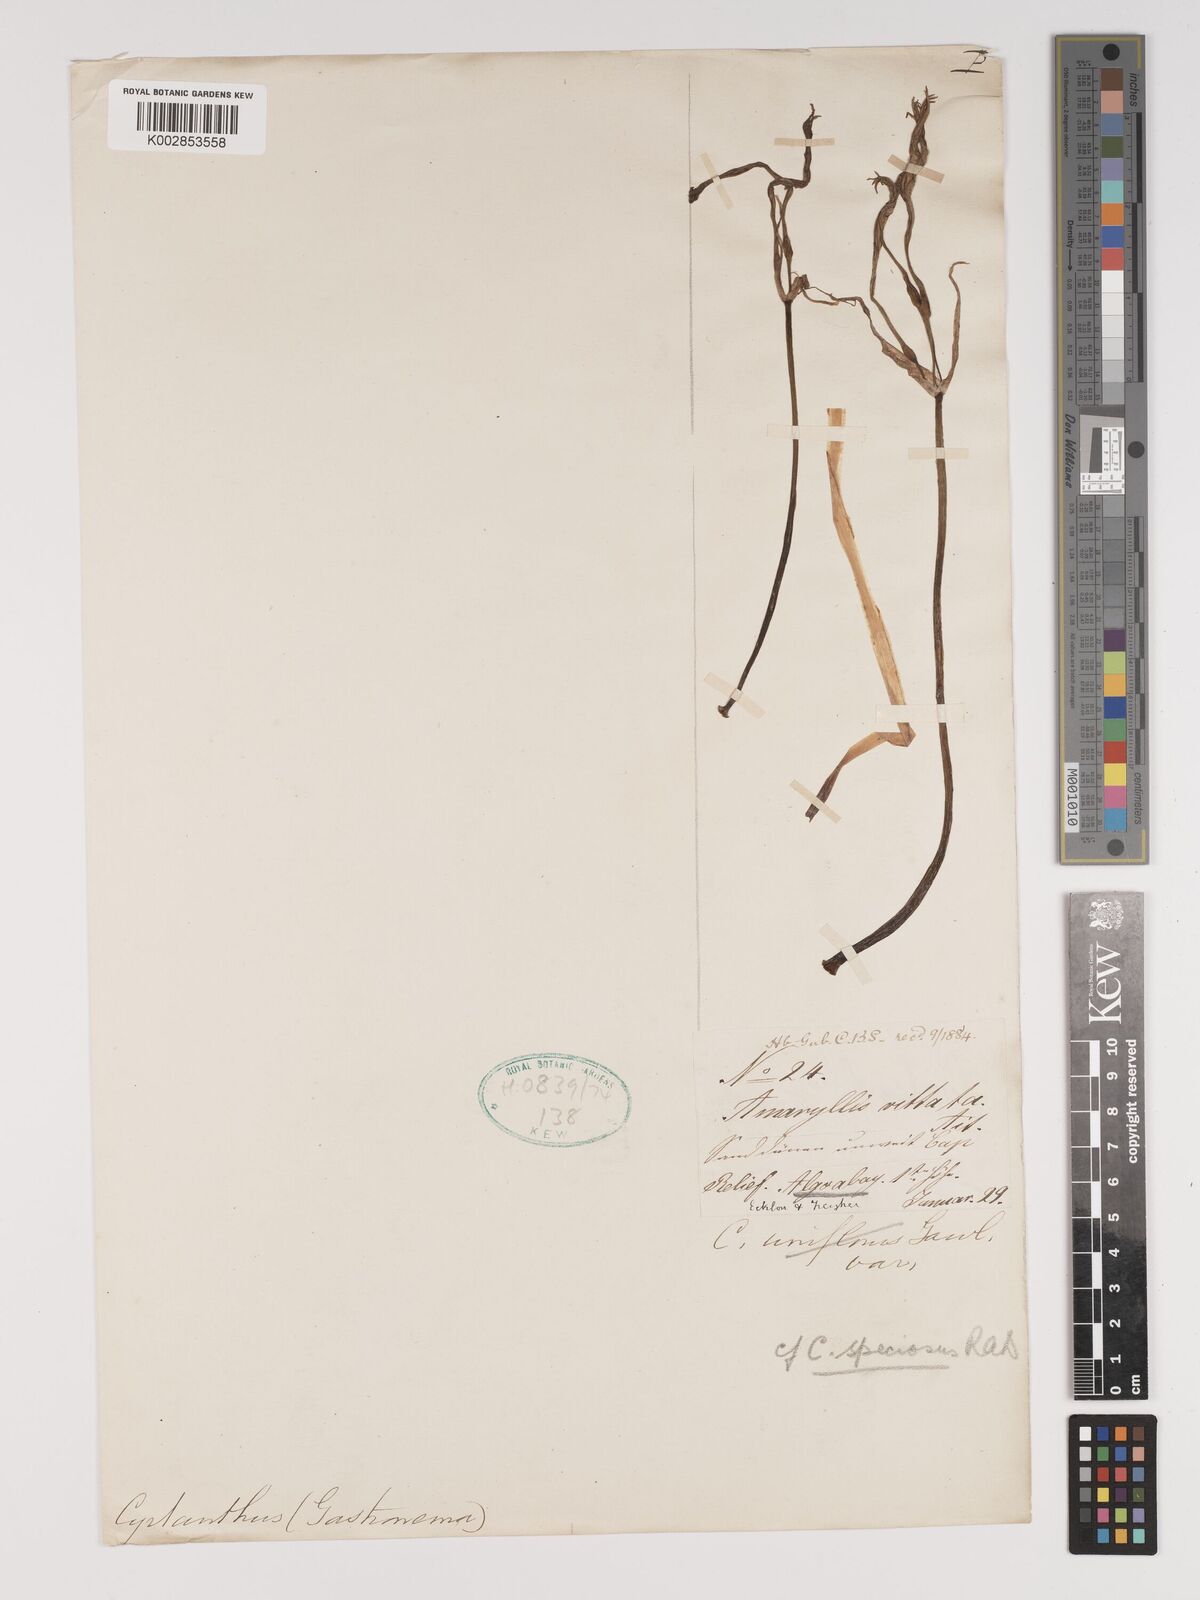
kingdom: Plantae
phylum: Tracheophyta
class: Liliopsida
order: Asparagales
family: Amaryllidaceae
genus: Cyrtanthus
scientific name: Cyrtanthus loddigesianus
